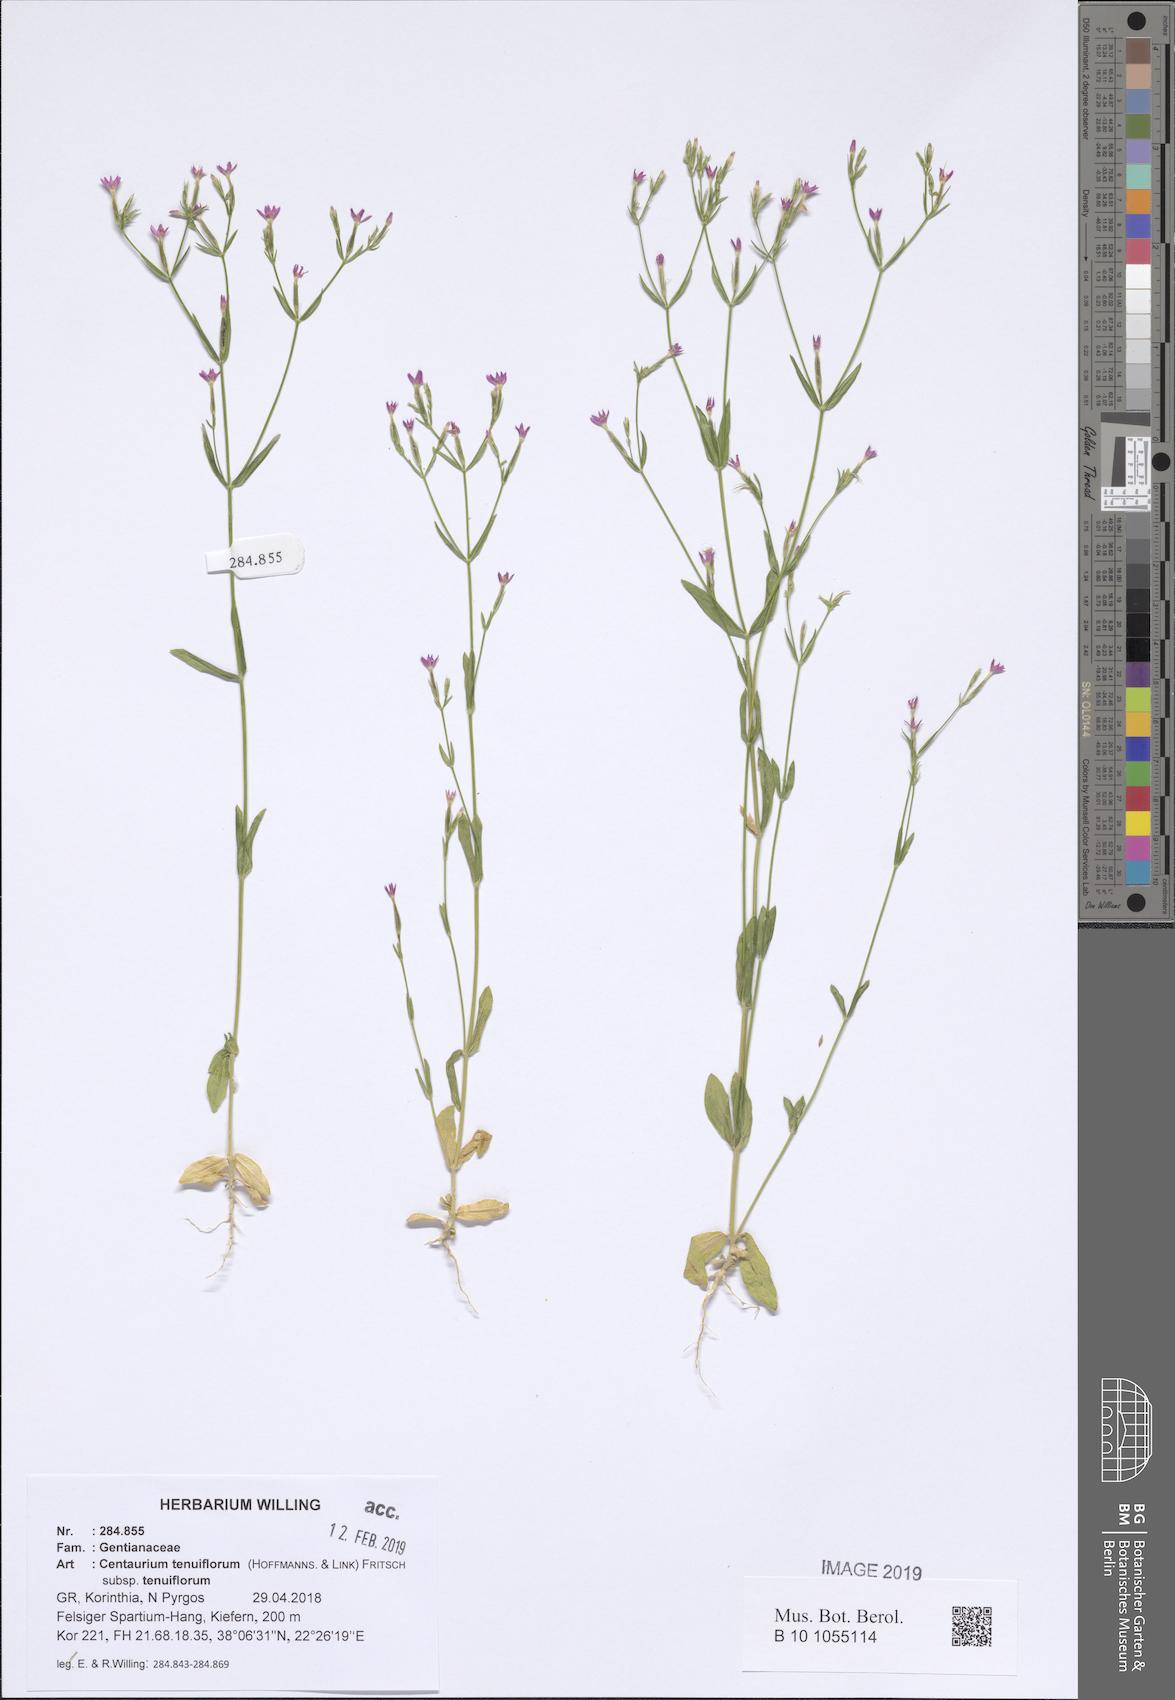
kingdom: Plantae
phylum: Tracheophyta
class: Magnoliopsida
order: Gentianales
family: Gentianaceae
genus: Centaurium
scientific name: Centaurium tenuiflorum
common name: Slender centaury
